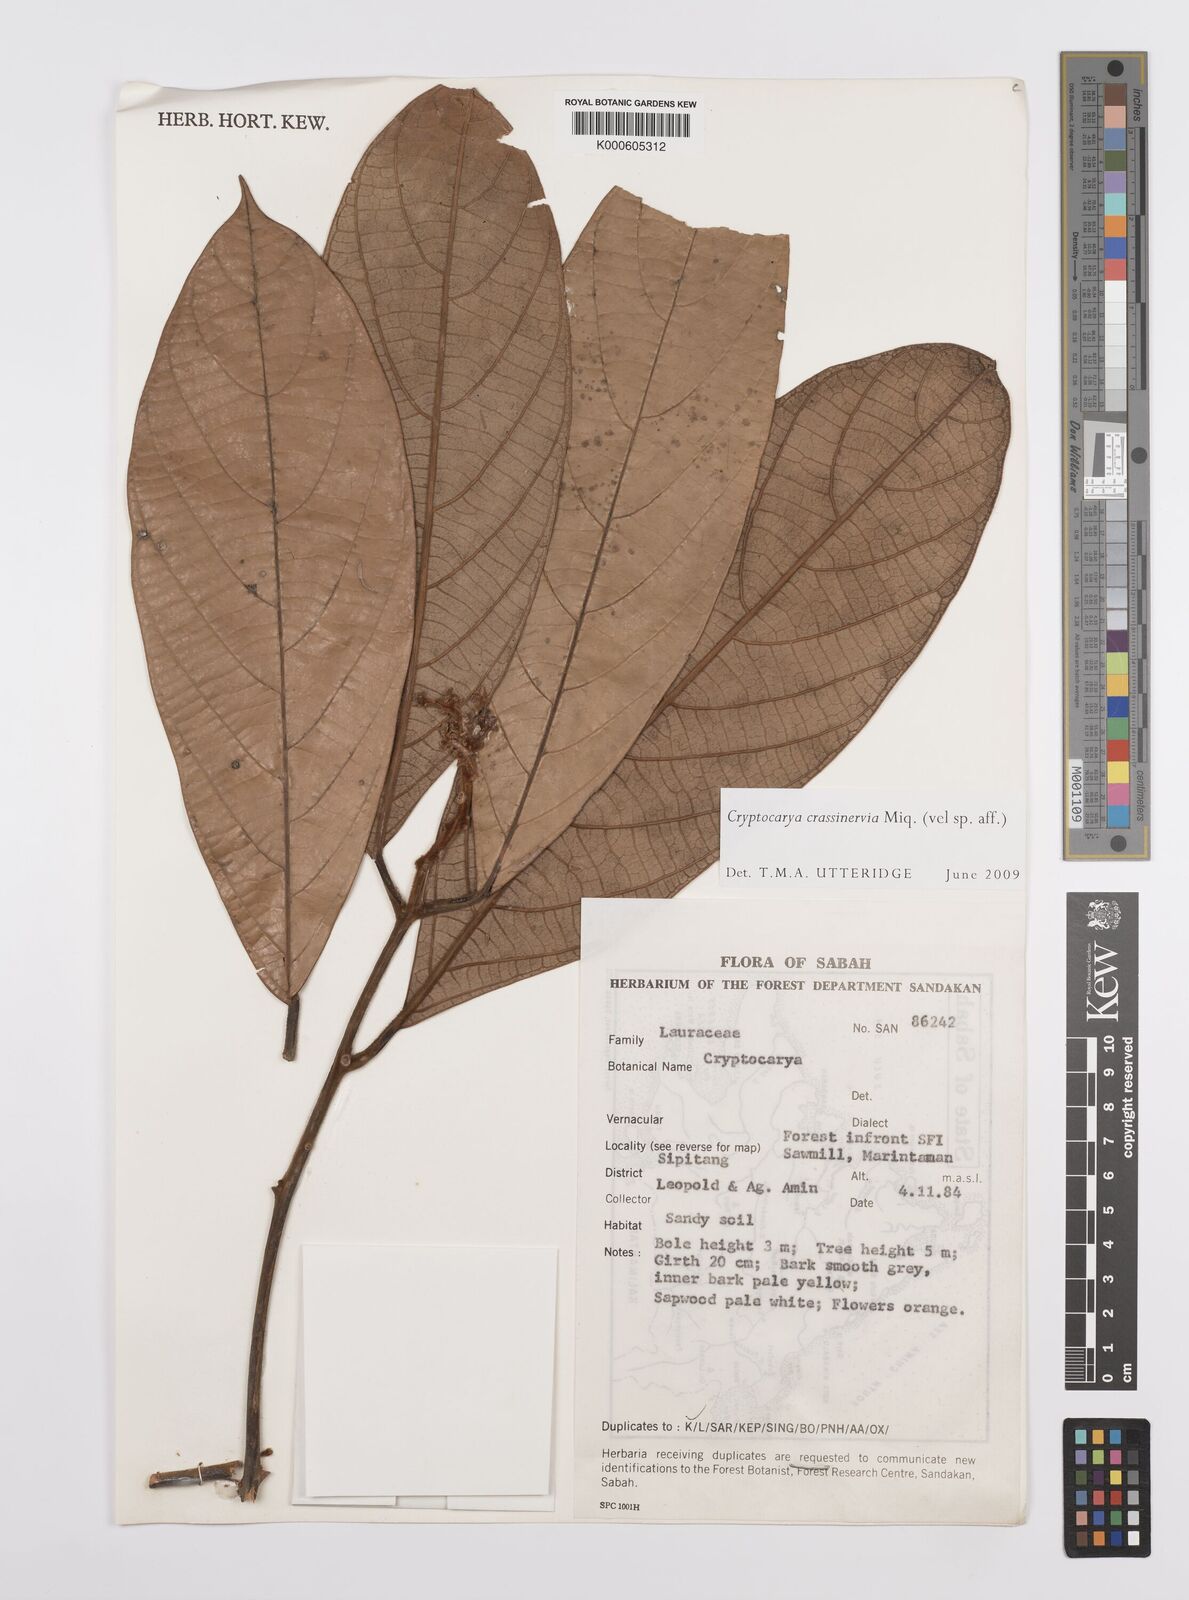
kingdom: Plantae
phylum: Tracheophyta
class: Magnoliopsida
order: Laurales
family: Lauraceae
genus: Cryptocarya
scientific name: Cryptocarya diversifolia
